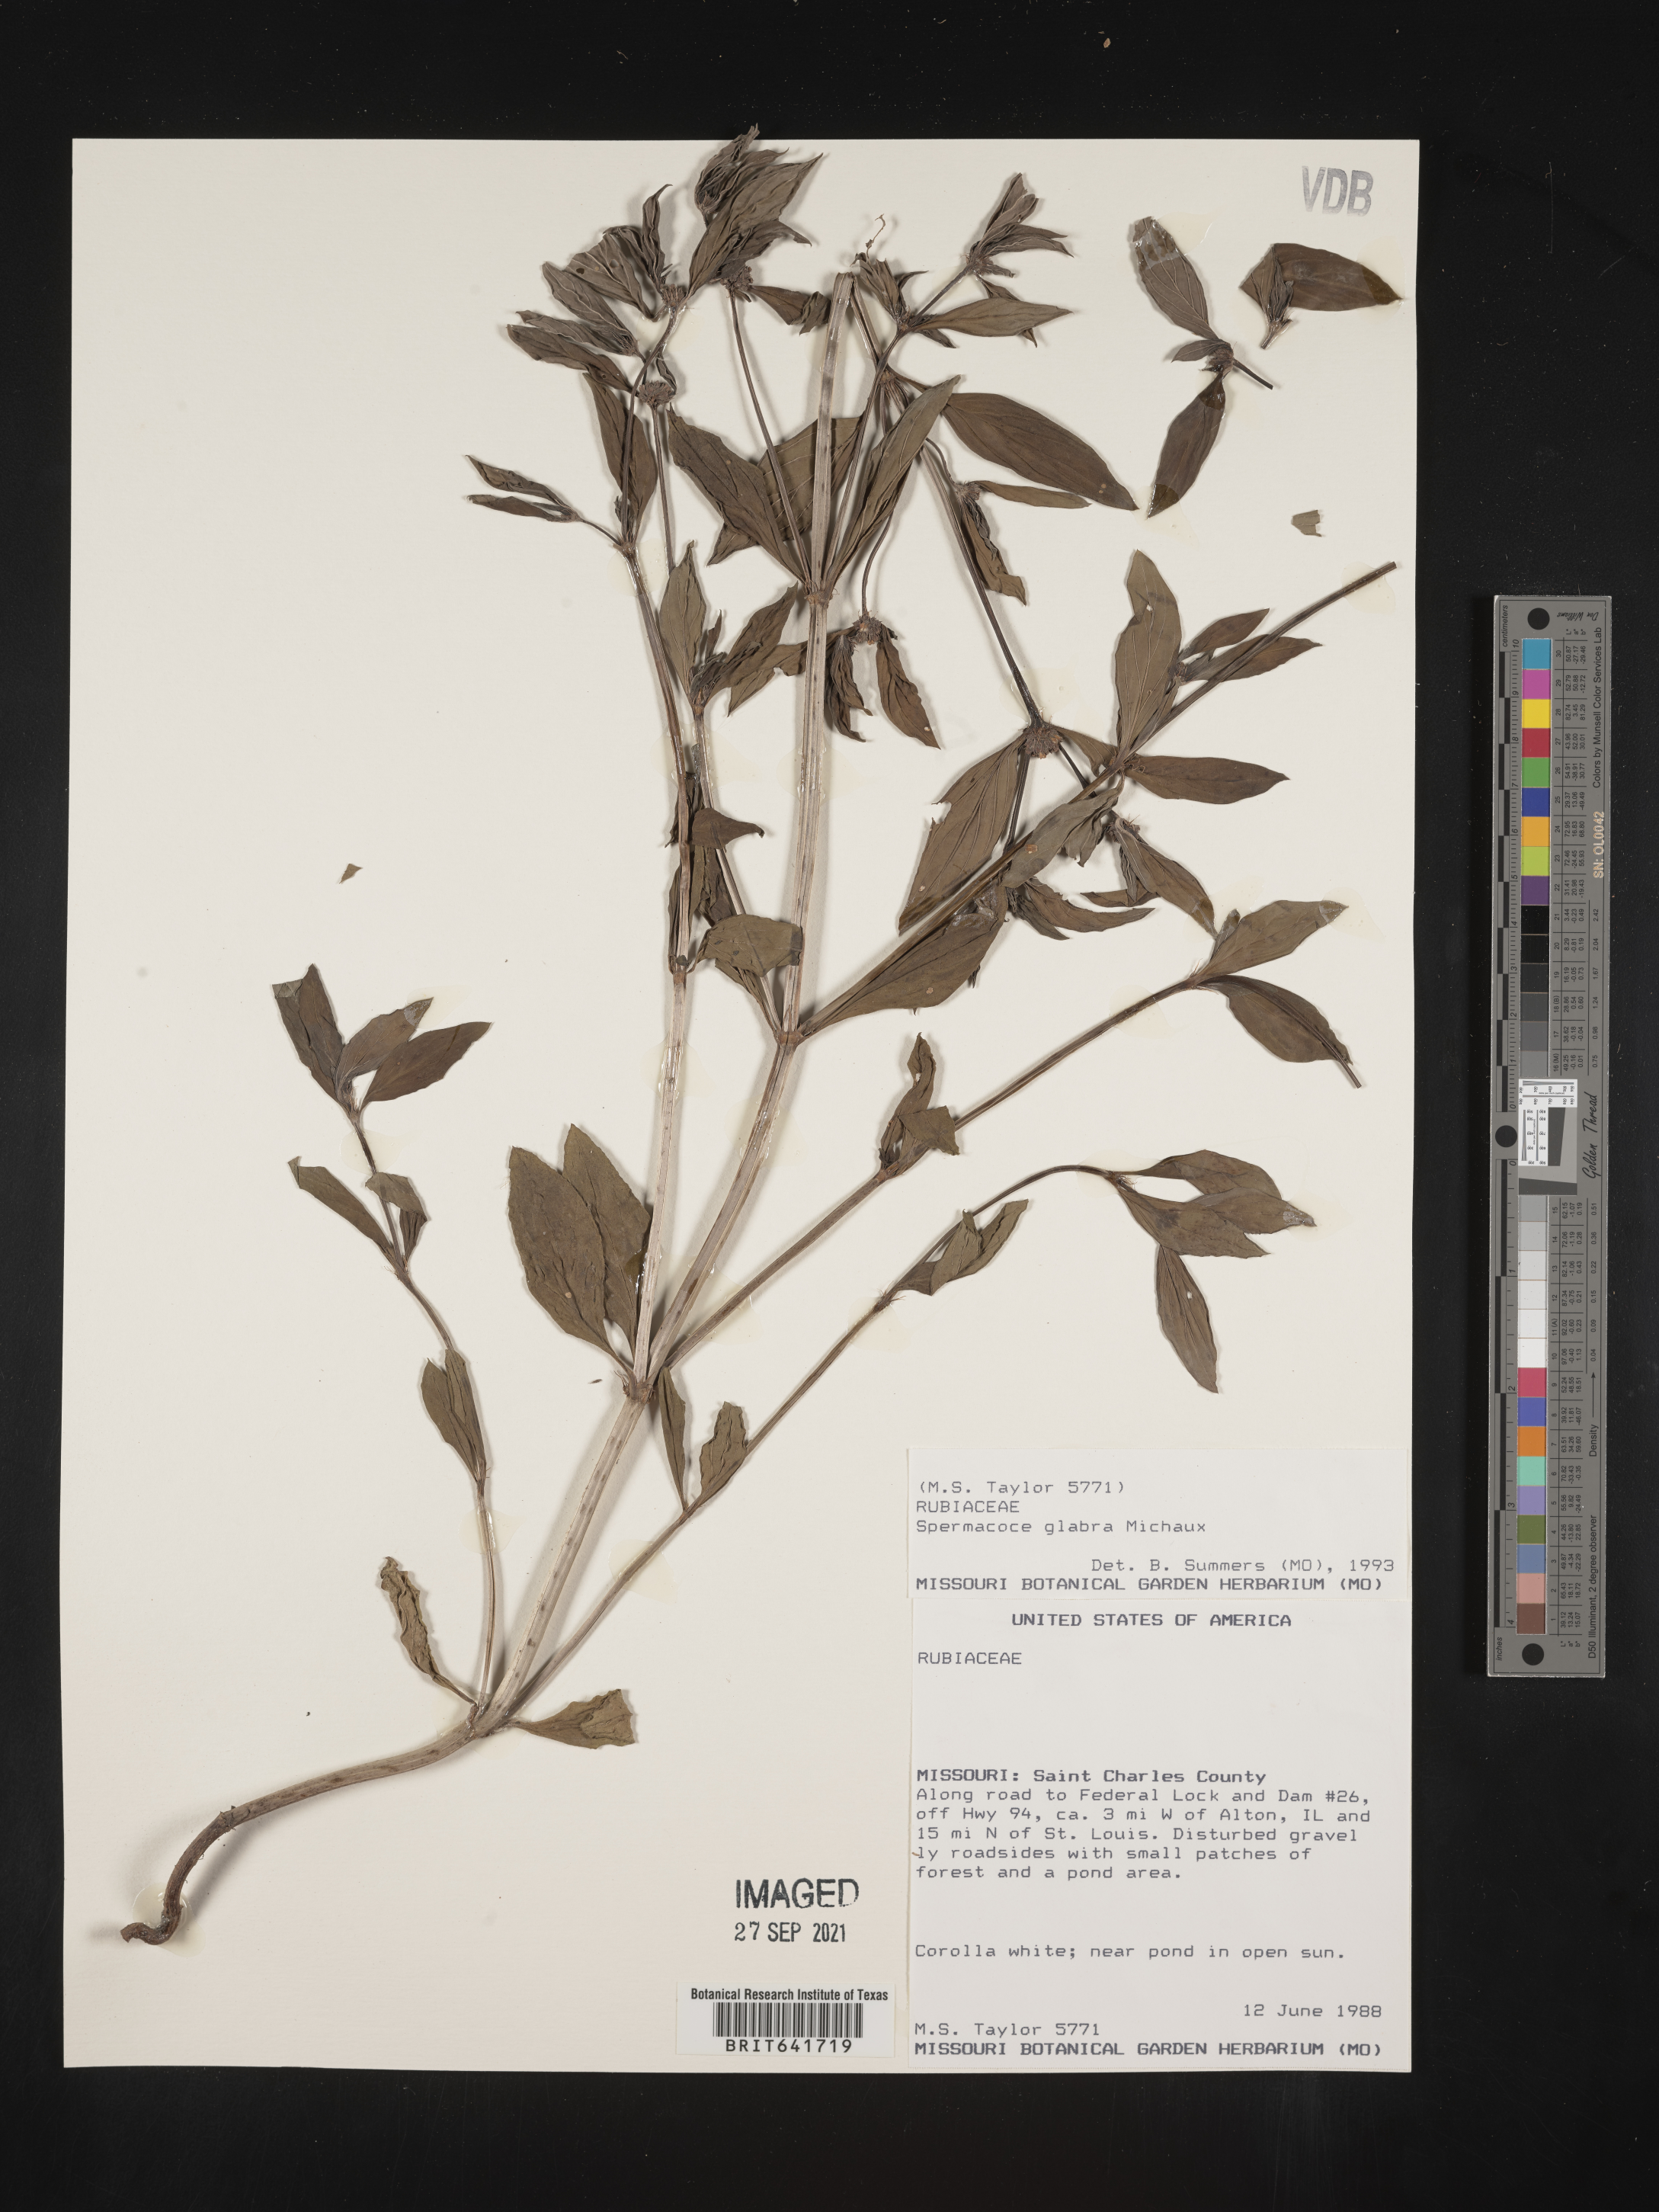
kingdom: Plantae
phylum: Tracheophyta
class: Magnoliopsida
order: Gentianales
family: Rubiaceae
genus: Spermacoce
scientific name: Spermacoce glabra
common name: Smooth buttonweed
